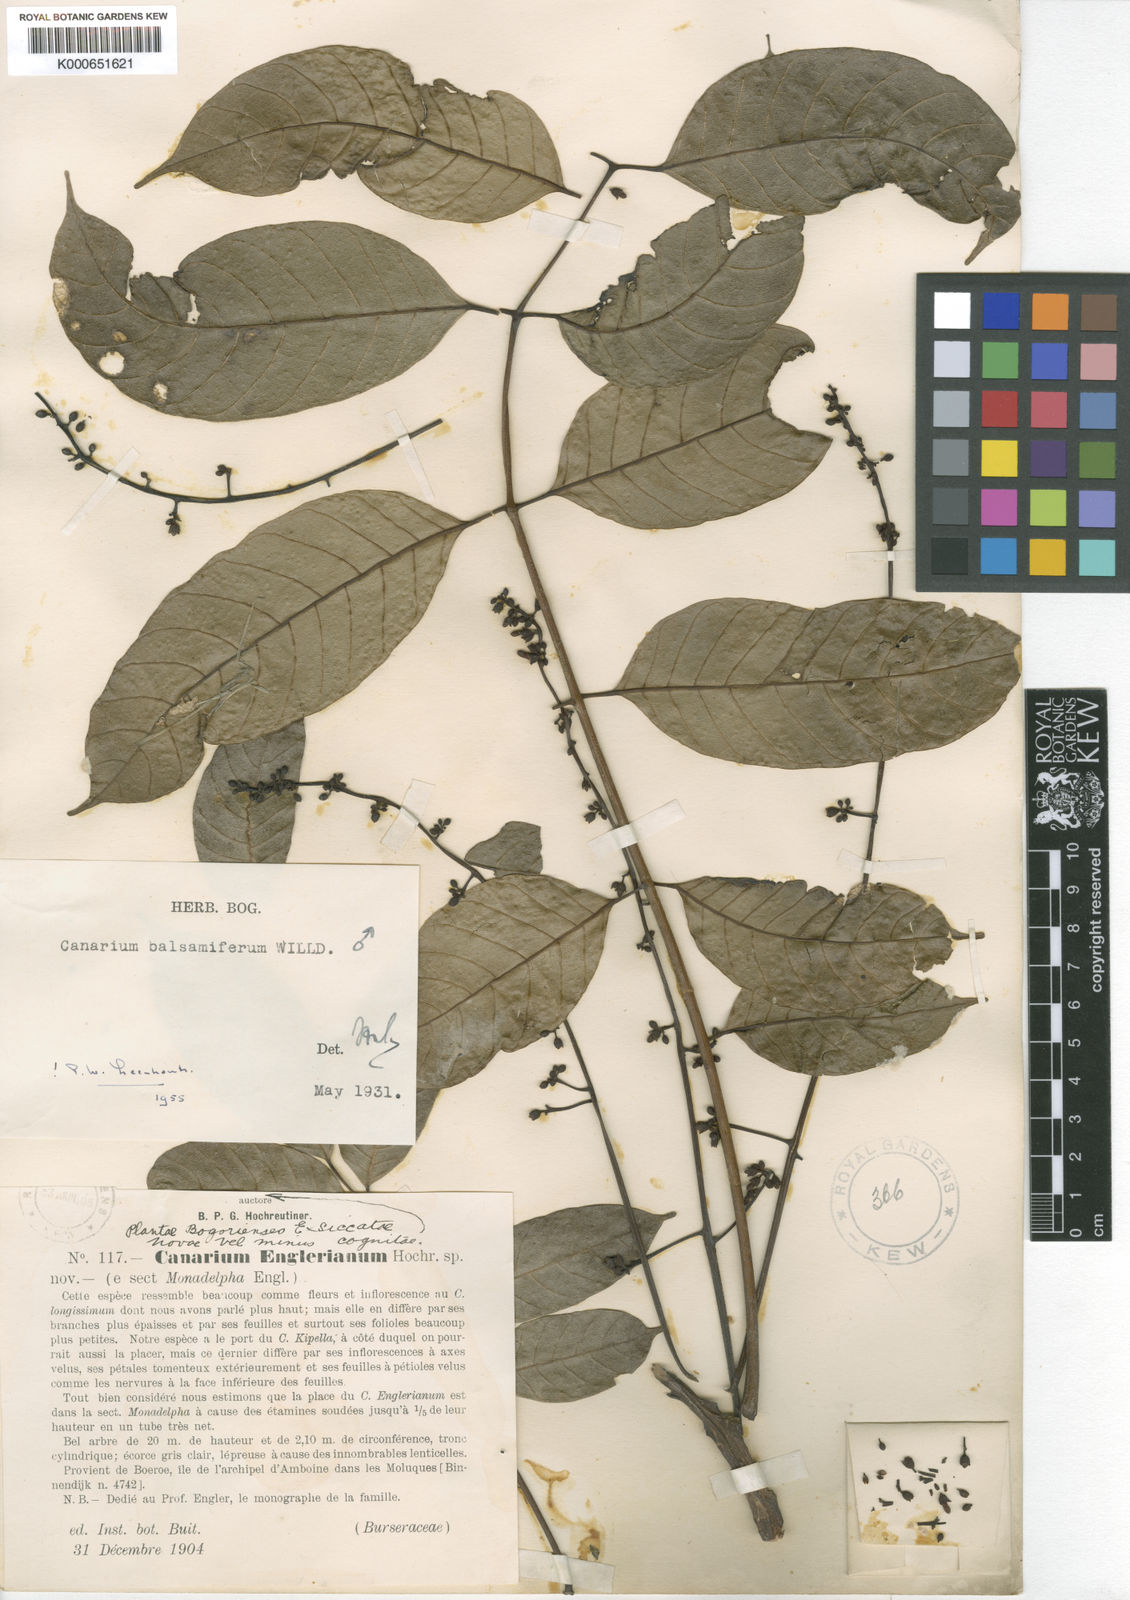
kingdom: Plantae
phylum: Tracheophyta
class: Magnoliopsida
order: Sapindales
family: Burseraceae
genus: Canarium
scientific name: Canarium balsamiferum
